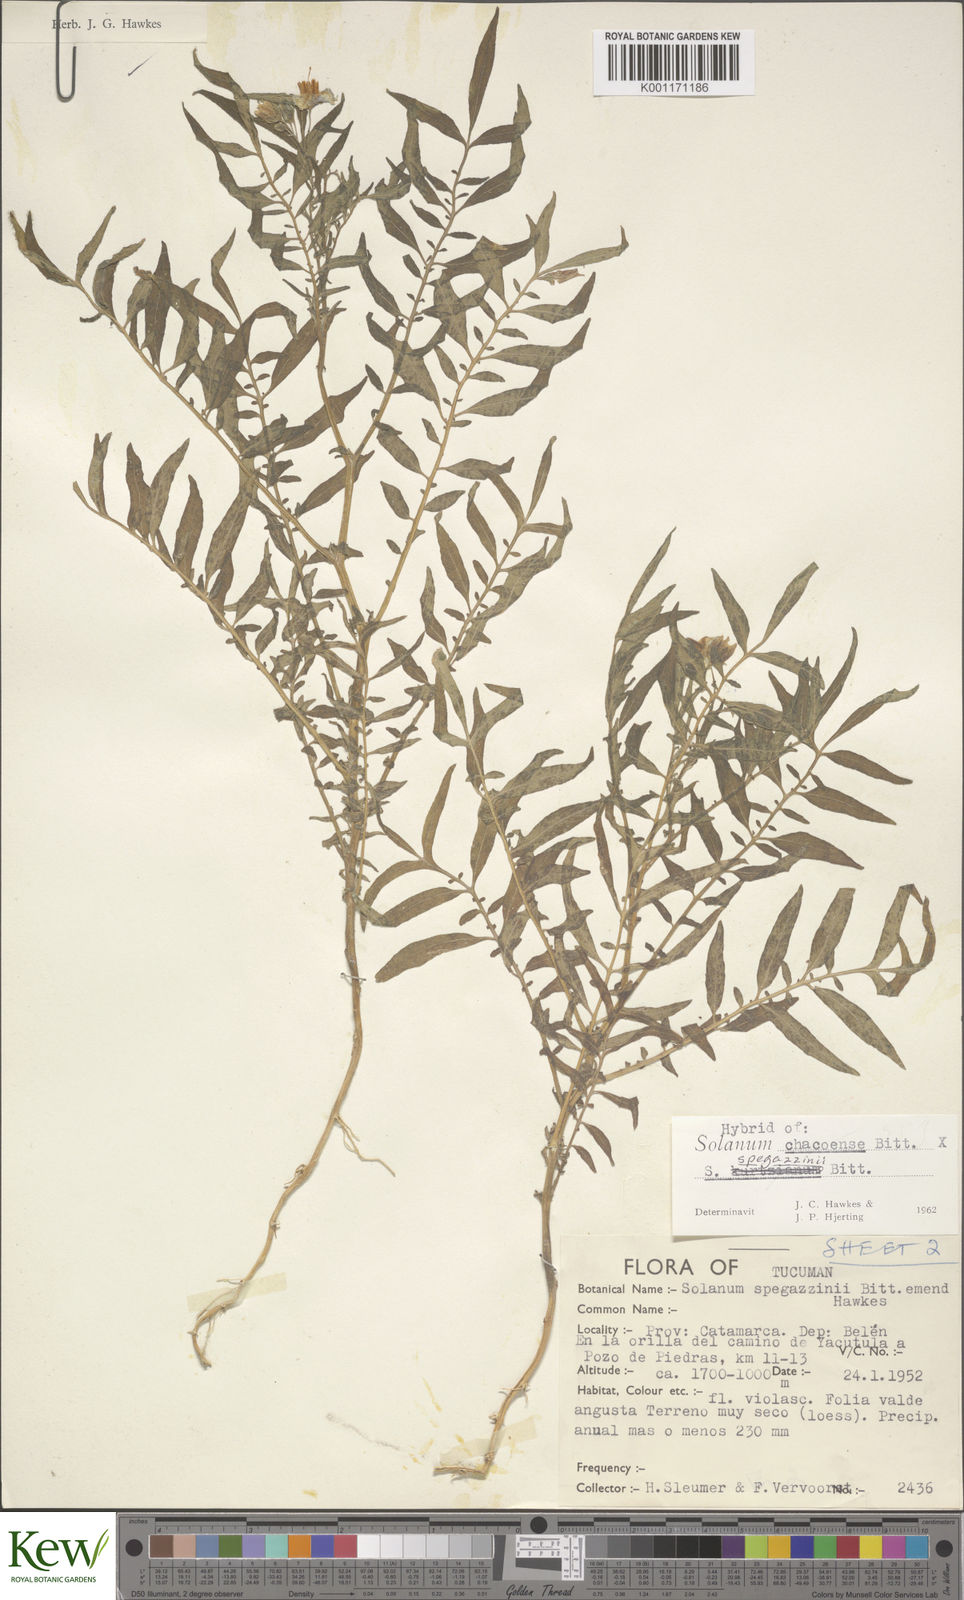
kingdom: Plantae
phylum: Tracheophyta
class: Magnoliopsida
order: Solanales
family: Solanaceae
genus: Solanum
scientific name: Solanum chacoense
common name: Chaco potato
